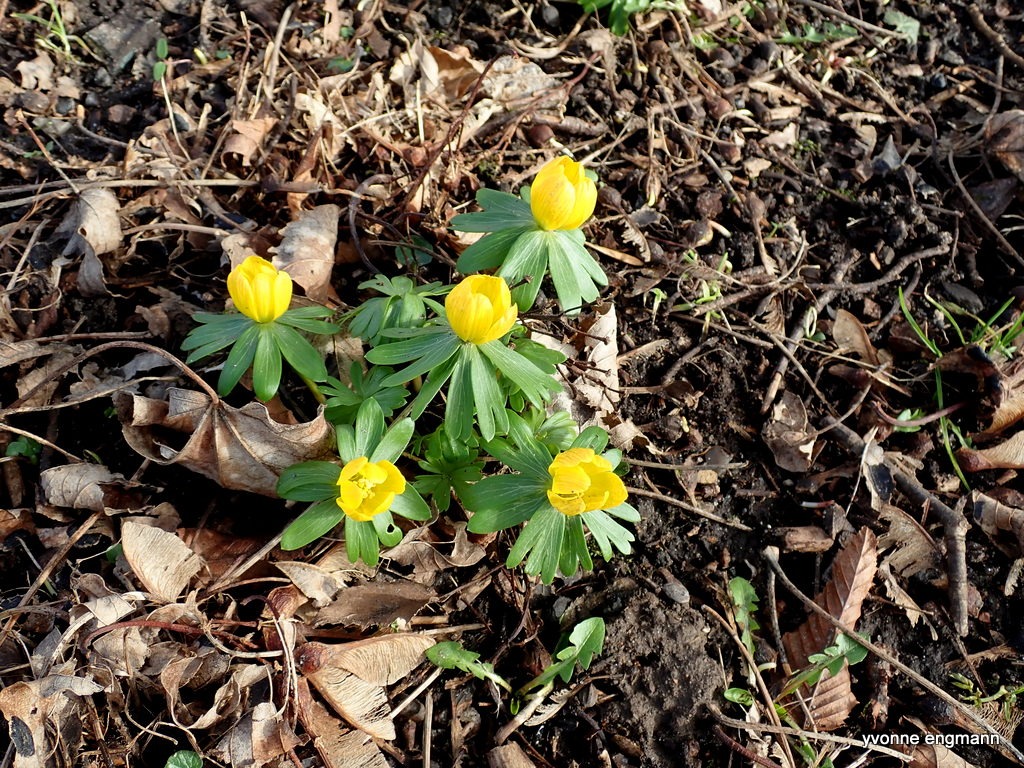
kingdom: Plantae
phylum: Tracheophyta
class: Magnoliopsida
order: Ranunculales
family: Ranunculaceae
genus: Eranthis
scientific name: Eranthis hyemalis
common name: Erantis
